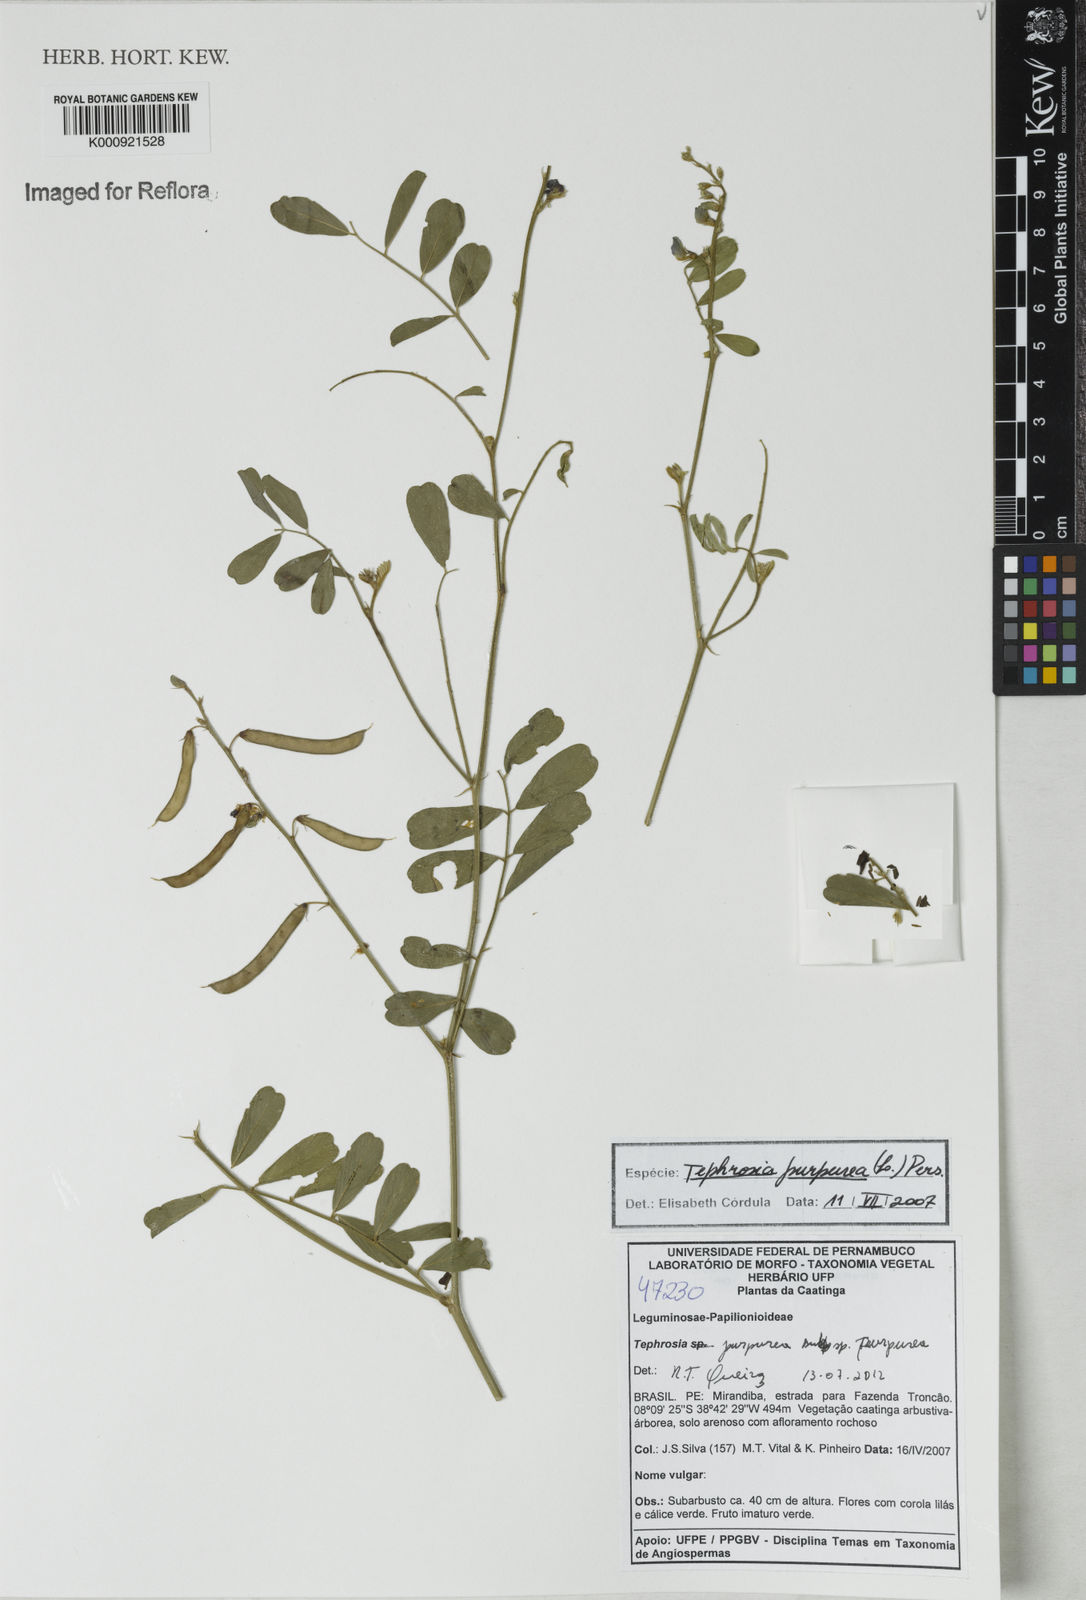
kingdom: Plantae
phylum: Tracheophyta
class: Magnoliopsida
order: Fabales
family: Fabaceae
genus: Tephrosia
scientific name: Tephrosia purpurea
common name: Fishpoison
